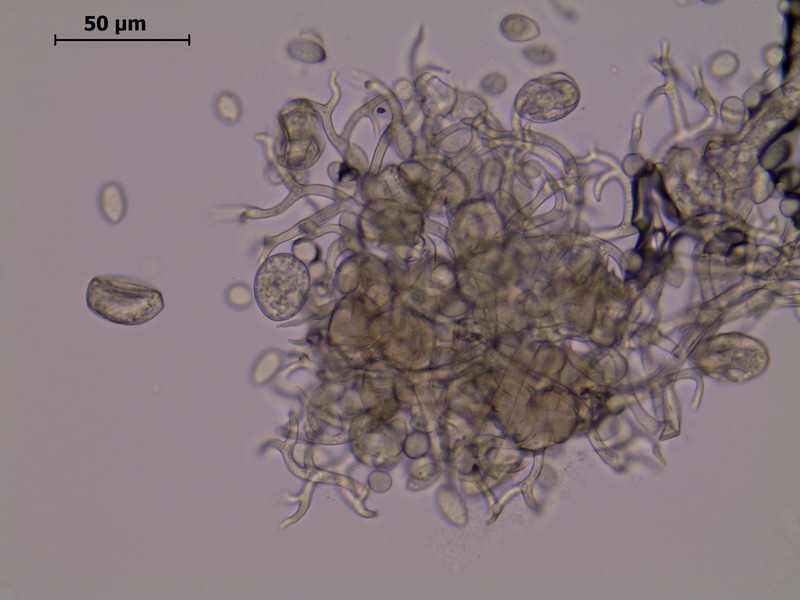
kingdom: Chromista
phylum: Oomycota
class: Peronosporea
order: Peronosporales
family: Peronosporaceae
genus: Peronospora
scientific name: Peronospora ficariae
